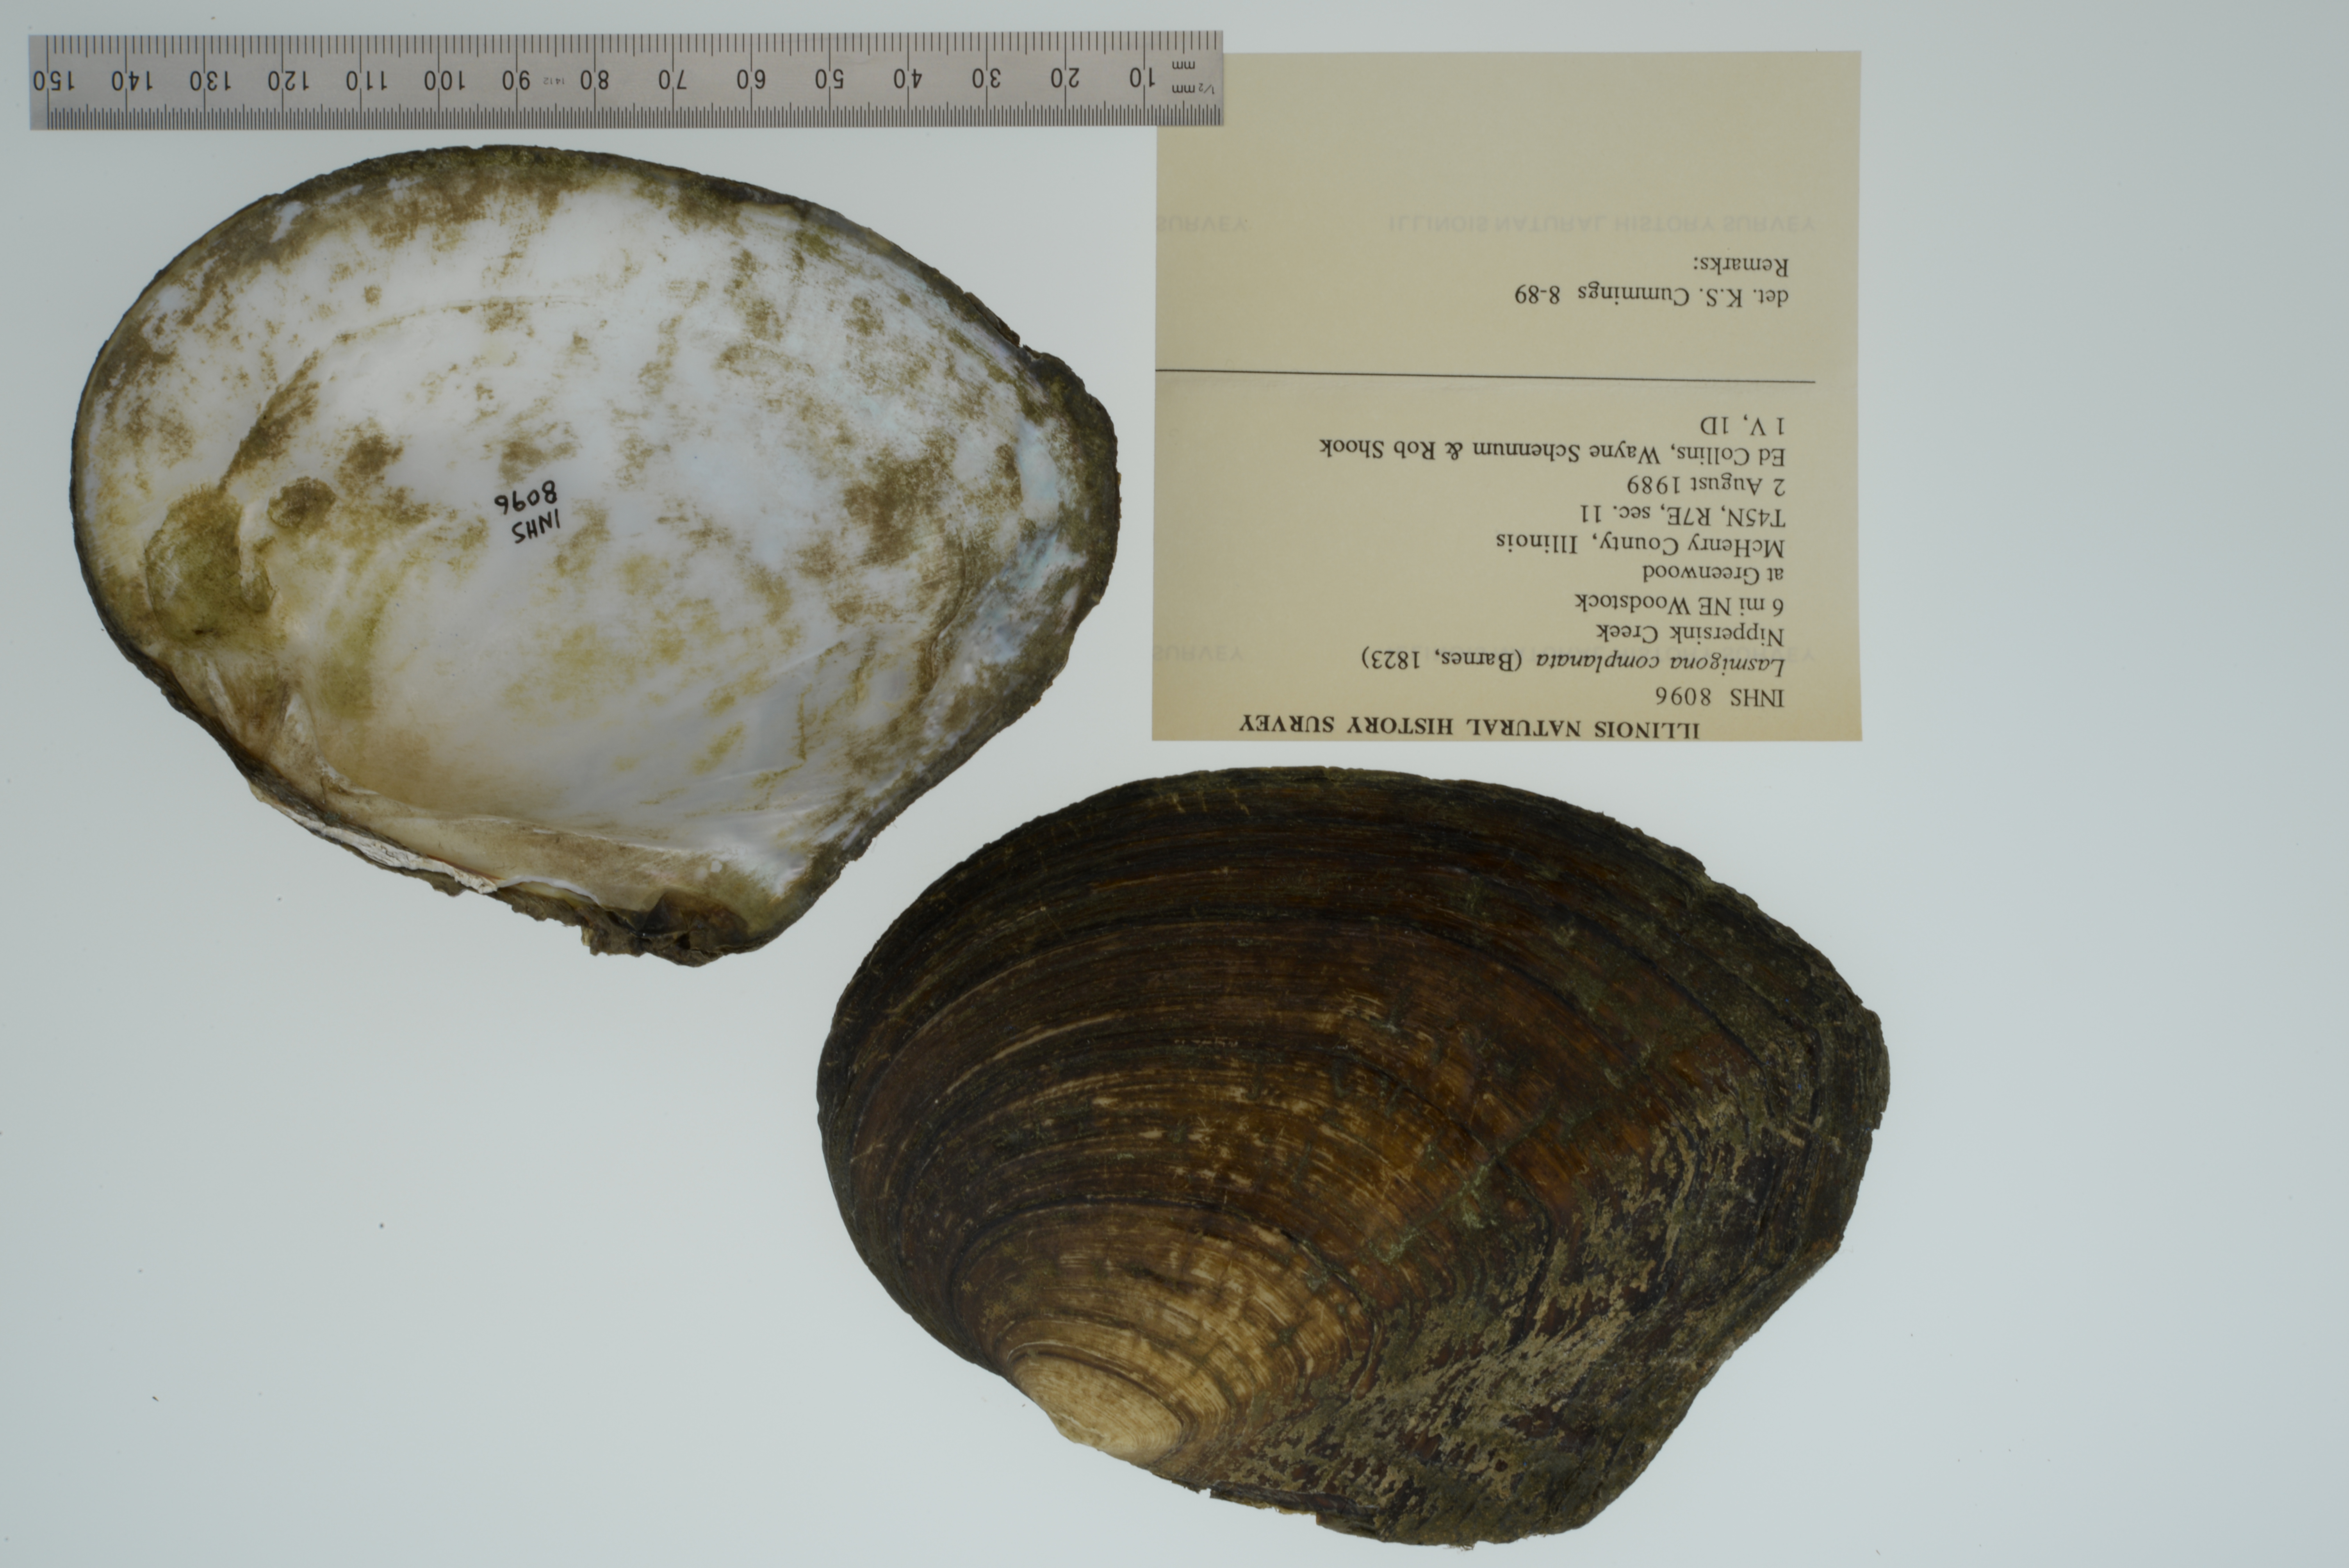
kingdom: Animalia
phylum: Mollusca
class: Bivalvia
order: Unionida
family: Unionidae
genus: Lasmigona
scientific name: Lasmigona complanata
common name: White heelsplitter
